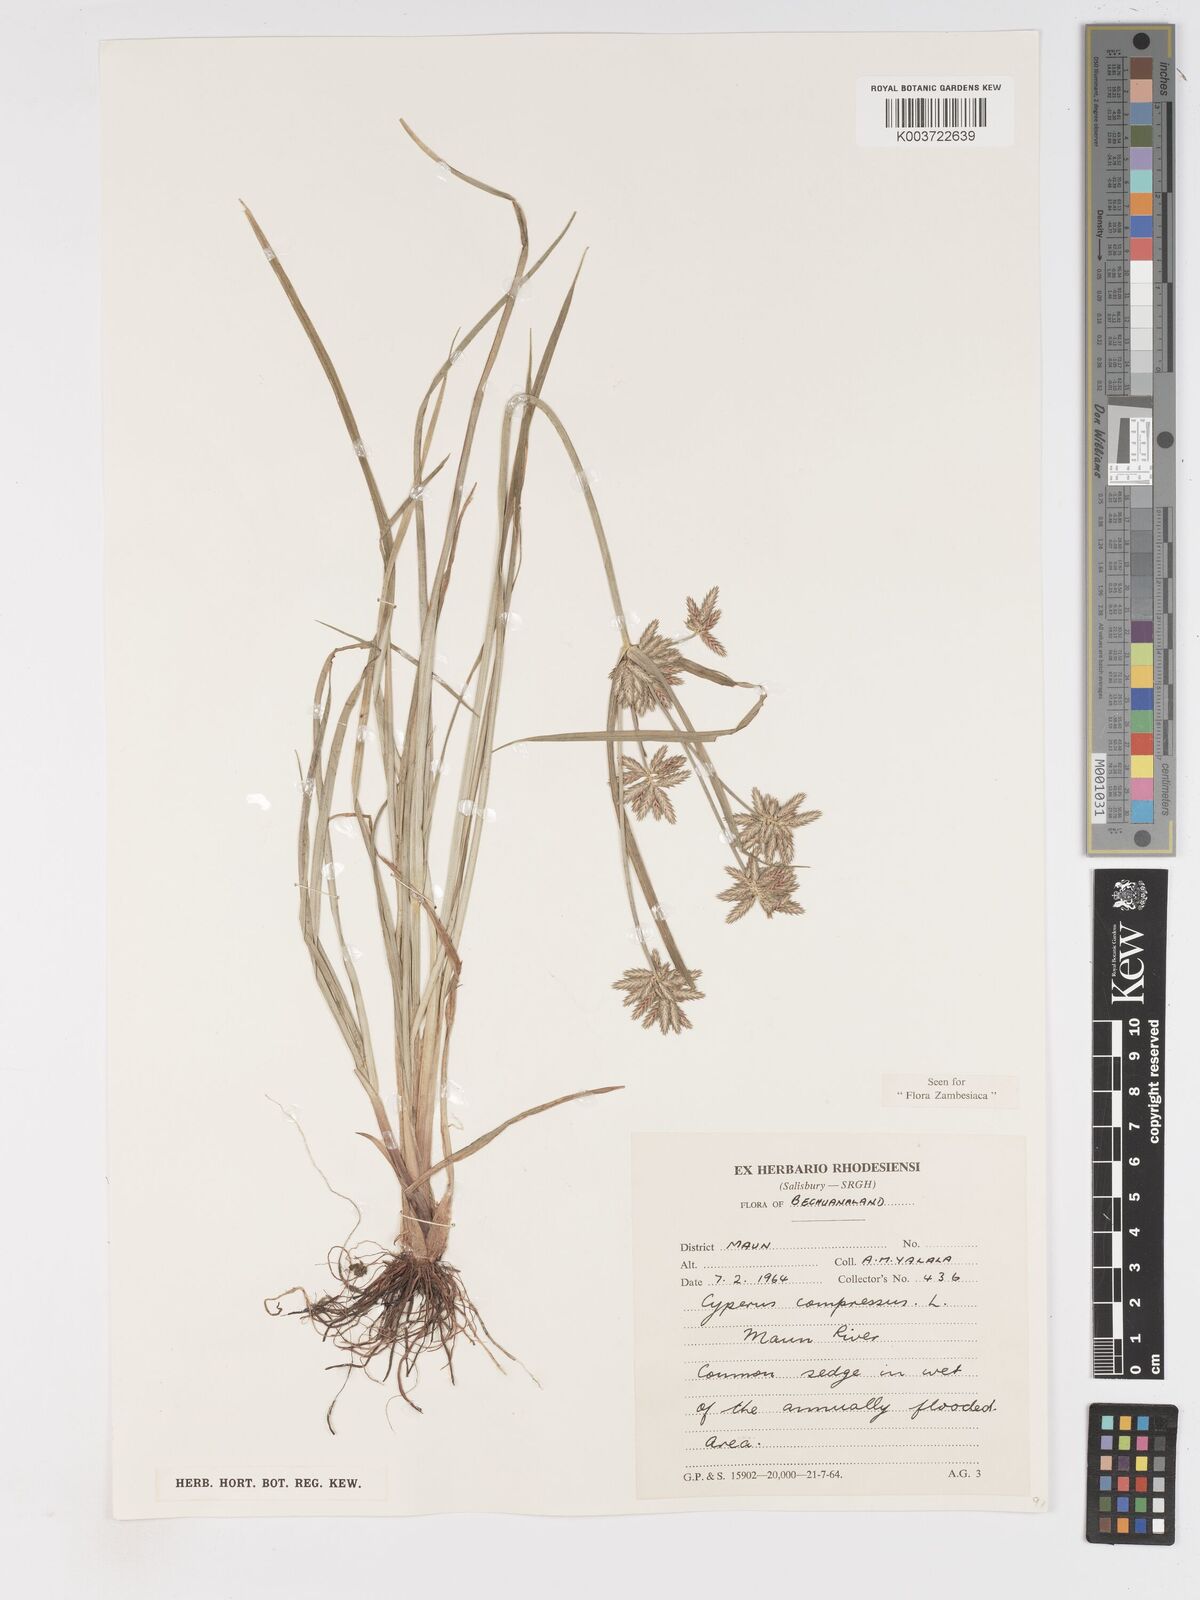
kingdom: Plantae
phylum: Tracheophyta
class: Liliopsida
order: Poales
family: Cyperaceae
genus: Cyperus
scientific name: Cyperus compressus
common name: Poorland flatsedge
